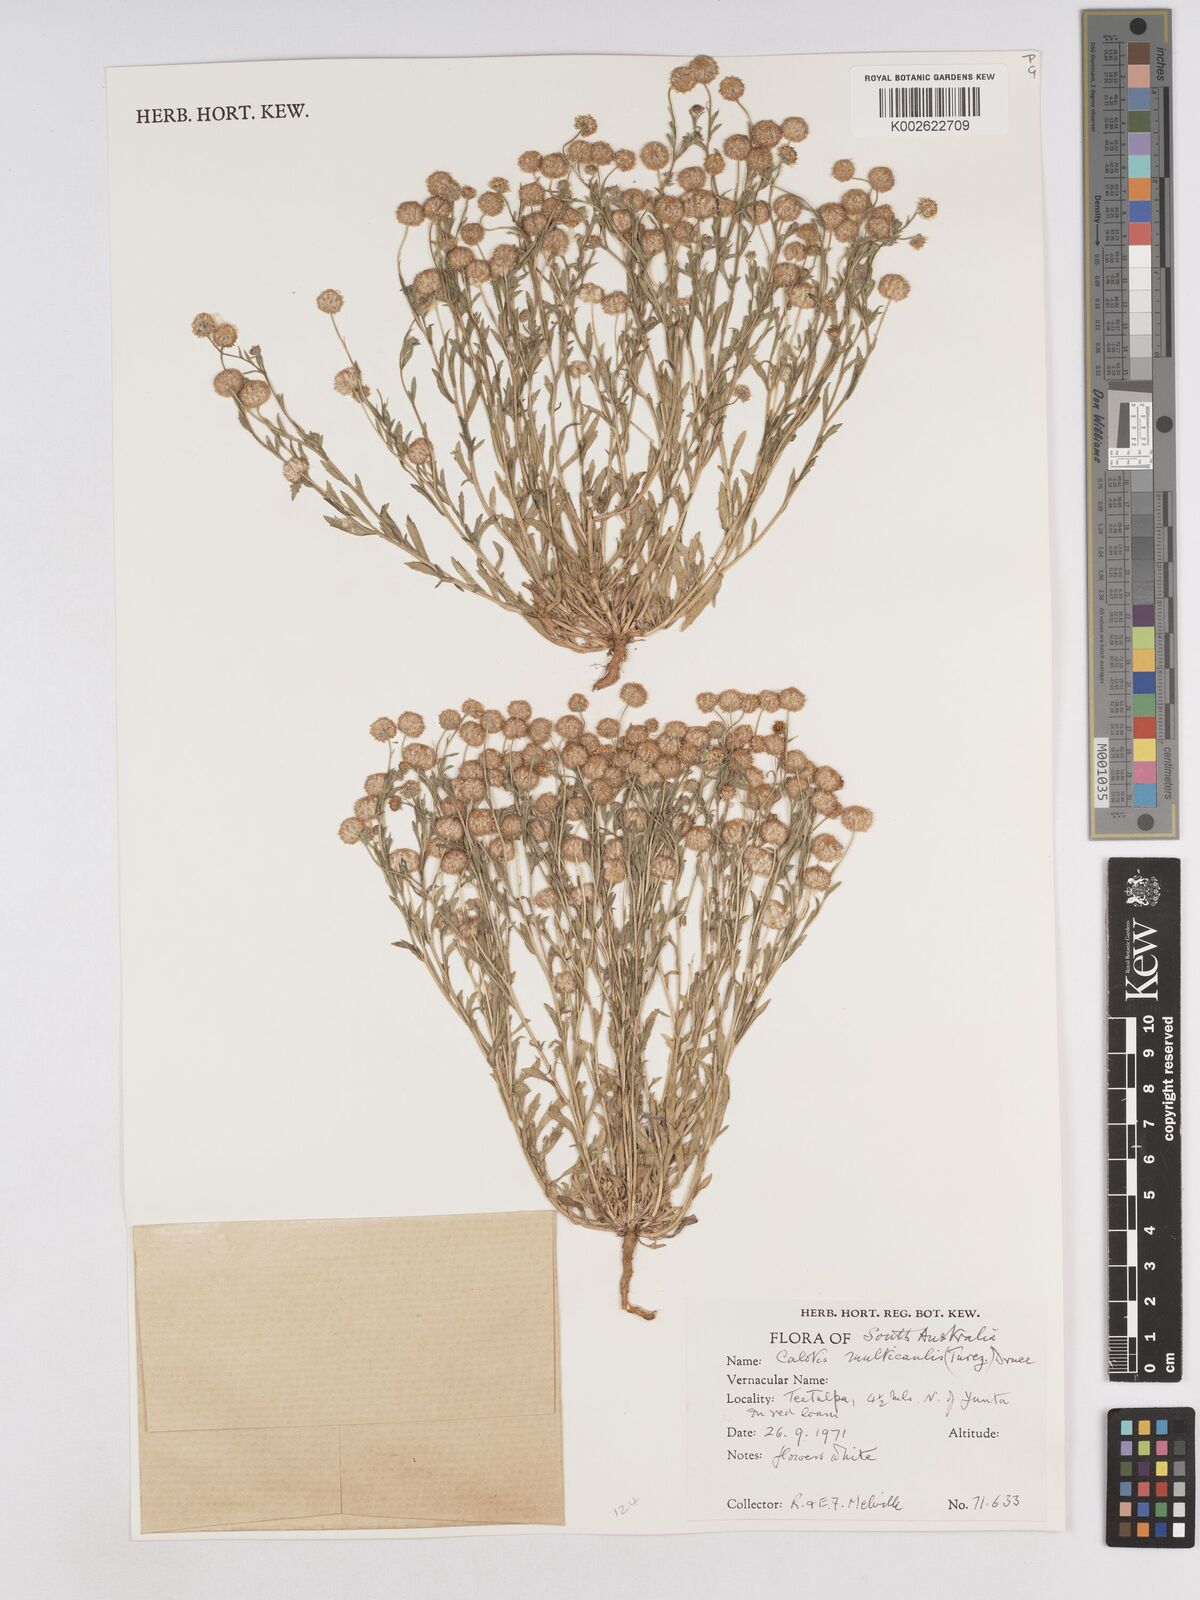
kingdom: Plantae
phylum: Tracheophyta
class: Magnoliopsida
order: Asterales
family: Asteraceae
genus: Calotis
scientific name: Calotis multicaulis
